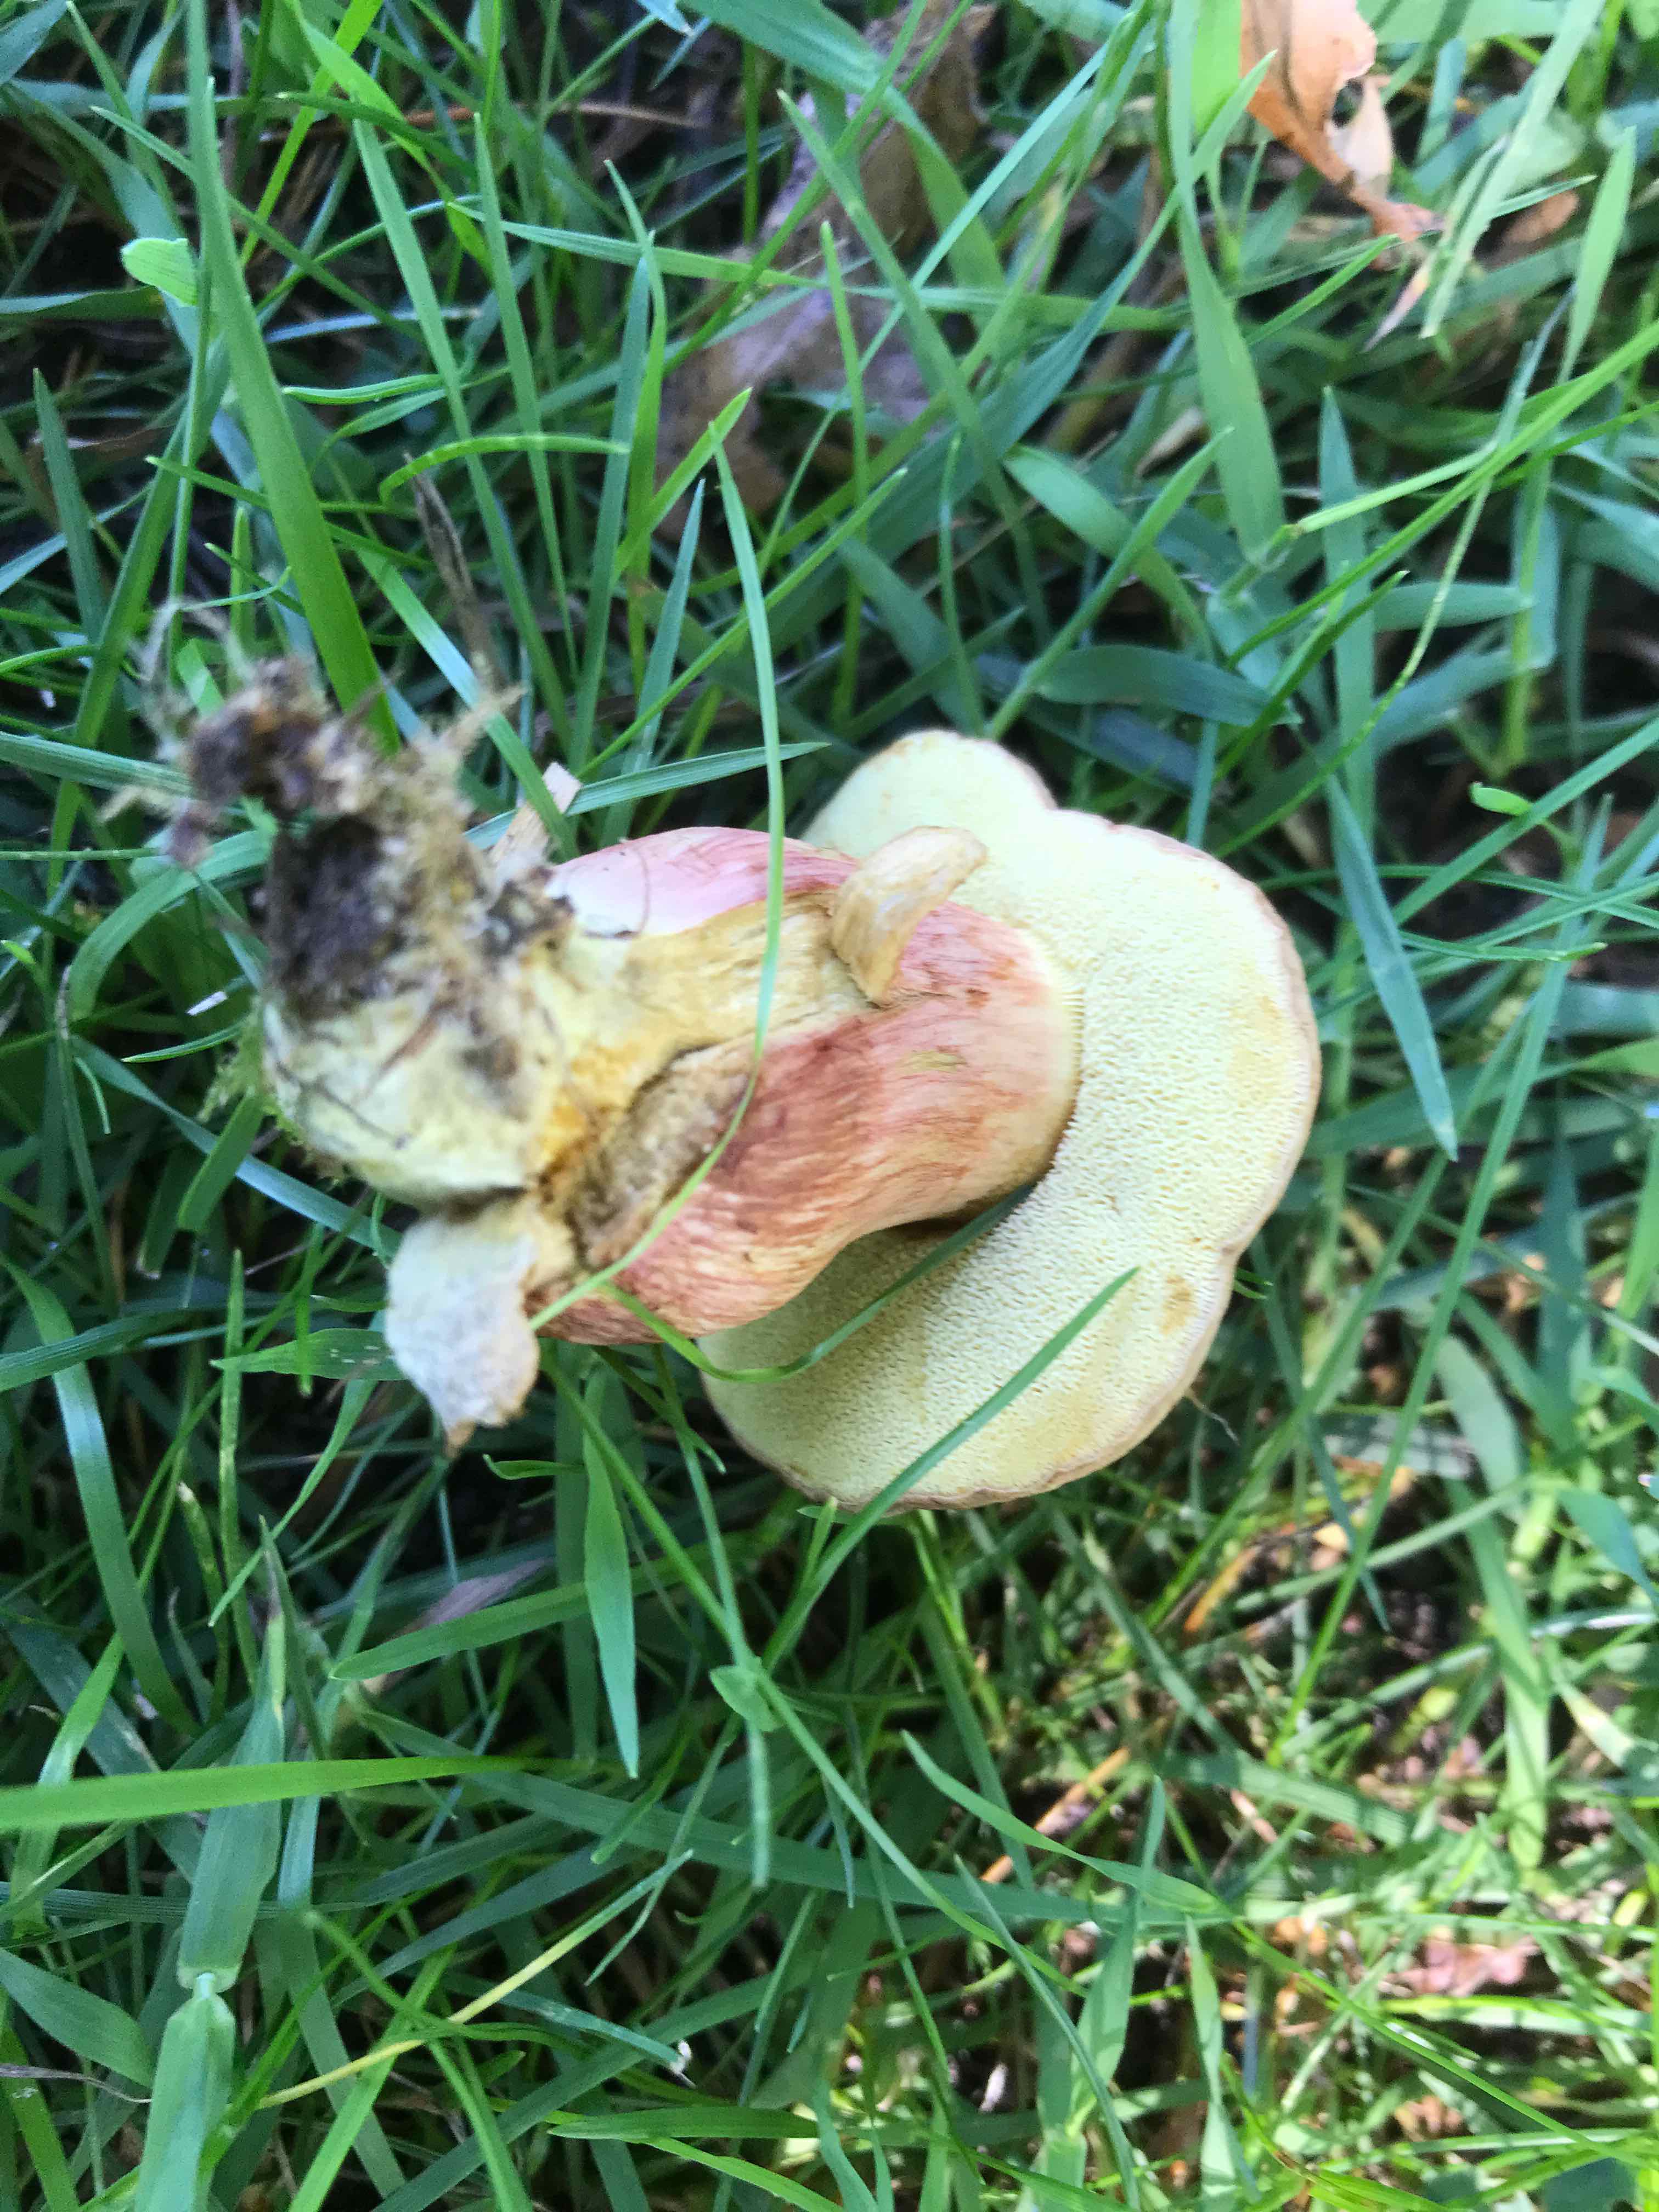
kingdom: Fungi
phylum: Basidiomycota
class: Agaricomycetes
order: Boletales
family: Boletaceae
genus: Hortiboletus
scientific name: Hortiboletus
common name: dværgrørhat
